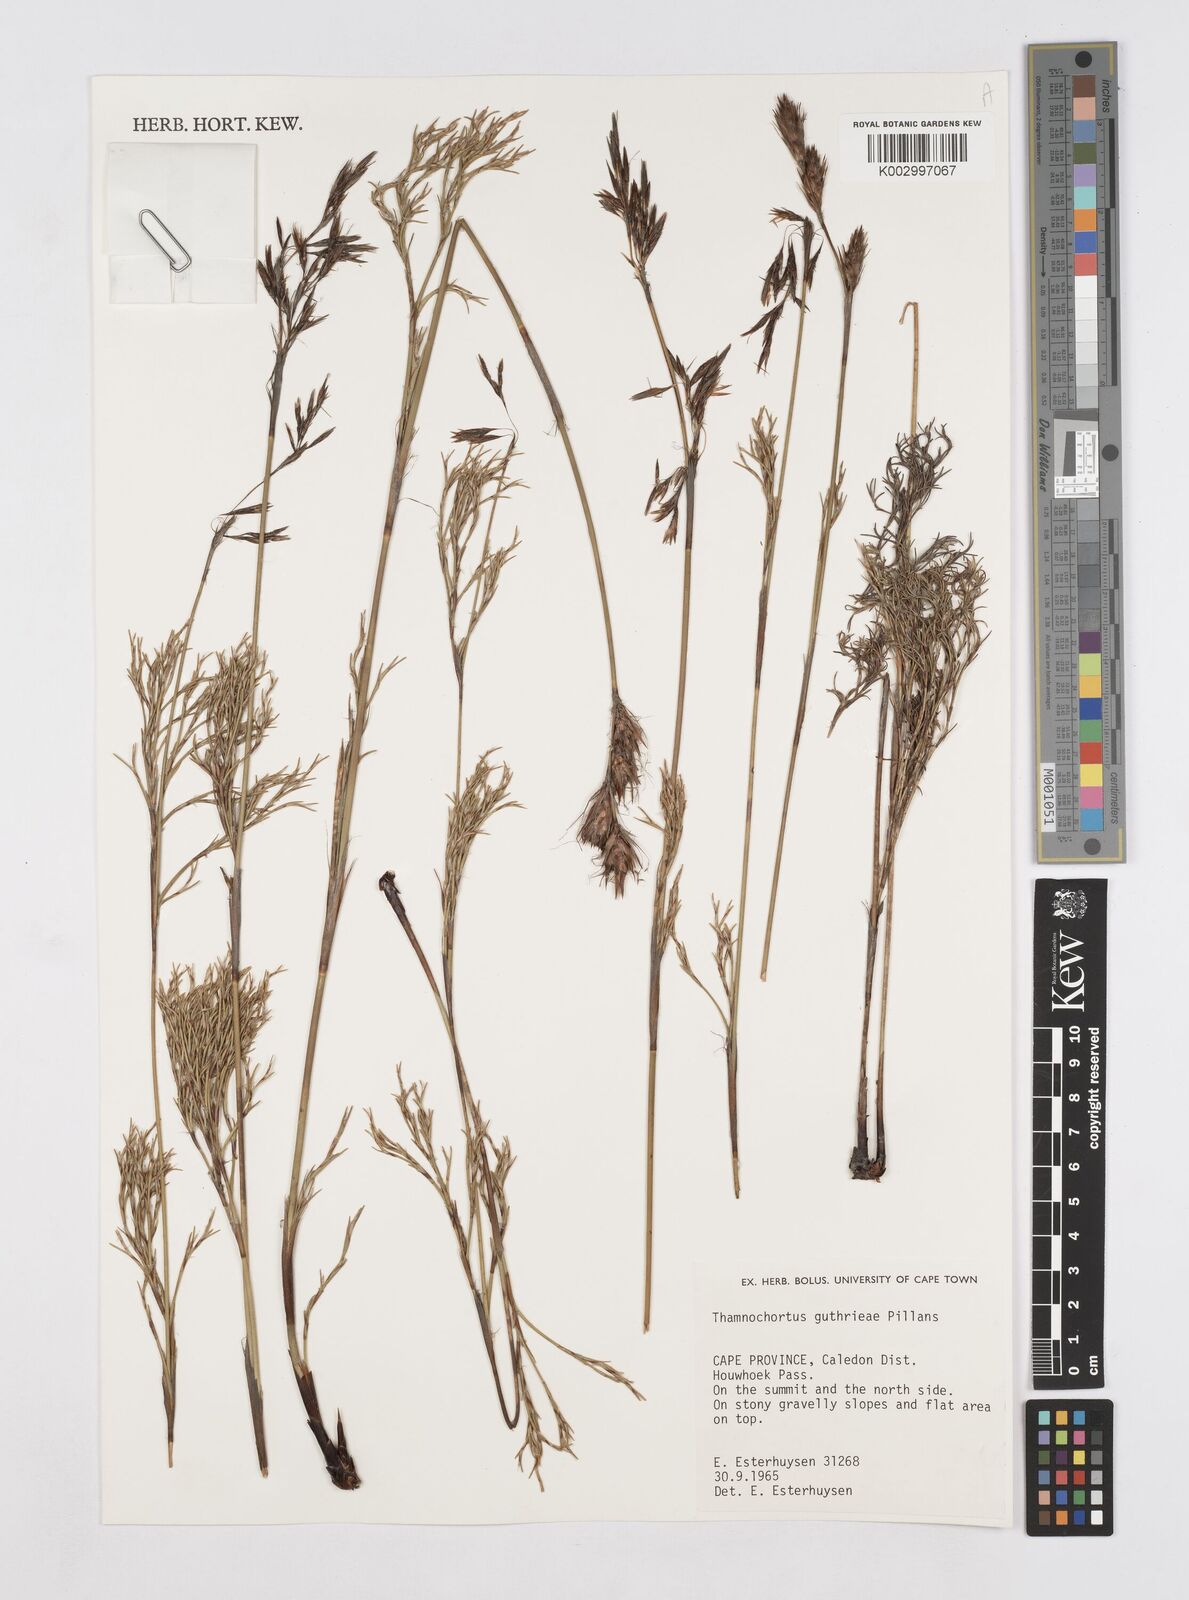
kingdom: Plantae
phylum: Tracheophyta
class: Liliopsida
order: Poales
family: Restionaceae
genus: Thamnochortus
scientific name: Thamnochortus guthrieae
